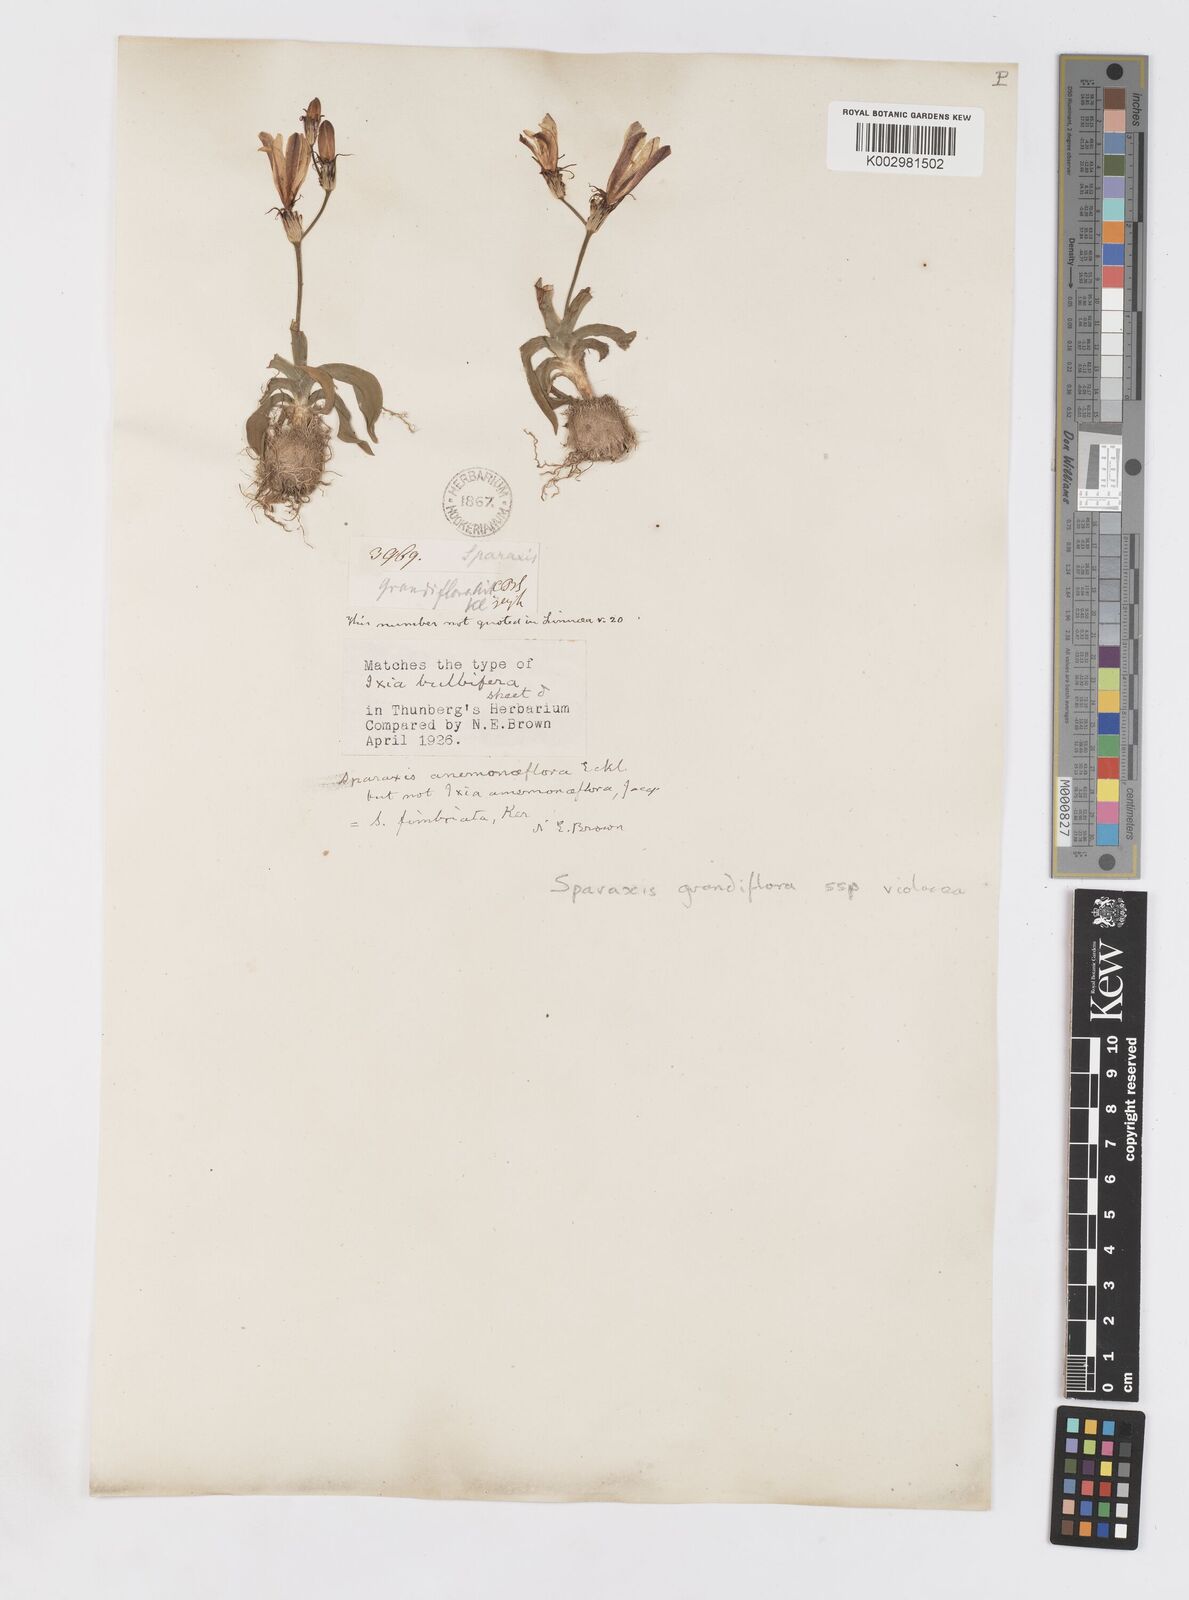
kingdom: Plantae
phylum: Tracheophyta
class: Liliopsida
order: Asparagales
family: Iridaceae
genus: Sparaxis
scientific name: Sparaxis grandiflora
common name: Plain harlequin-flower
